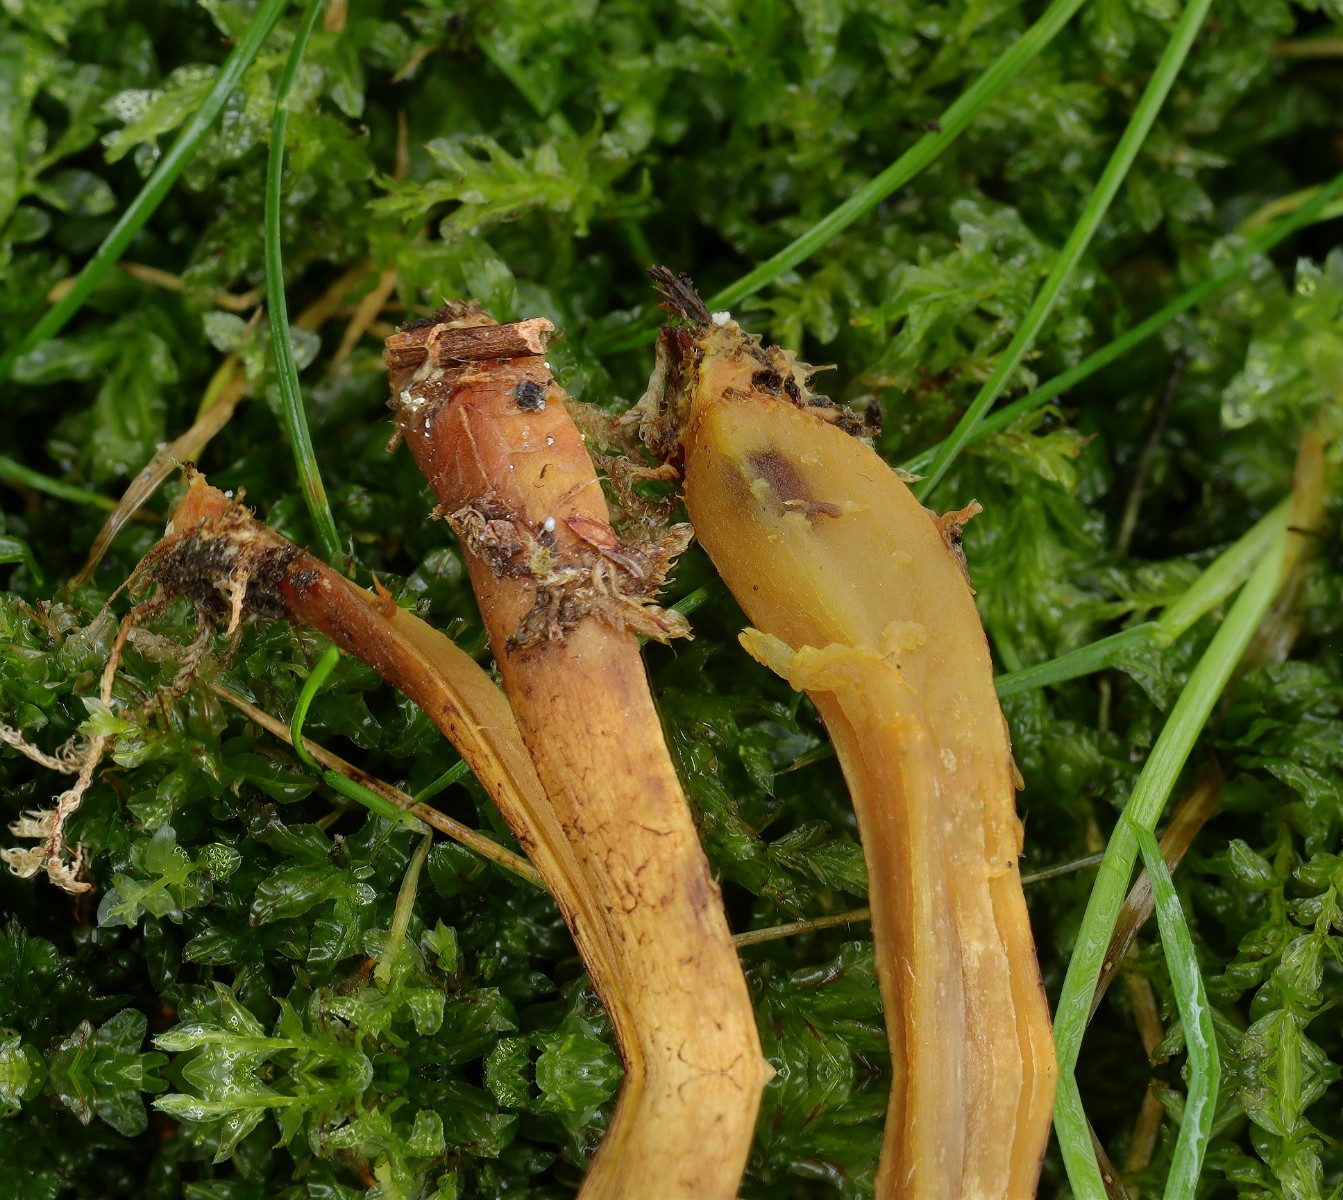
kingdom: Fungi
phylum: Basidiomycota
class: Agaricomycetes
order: Agaricales
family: Cortinariaceae
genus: Cortinarius
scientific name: Cortinarius bataillei
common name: orangefodet slørhat
